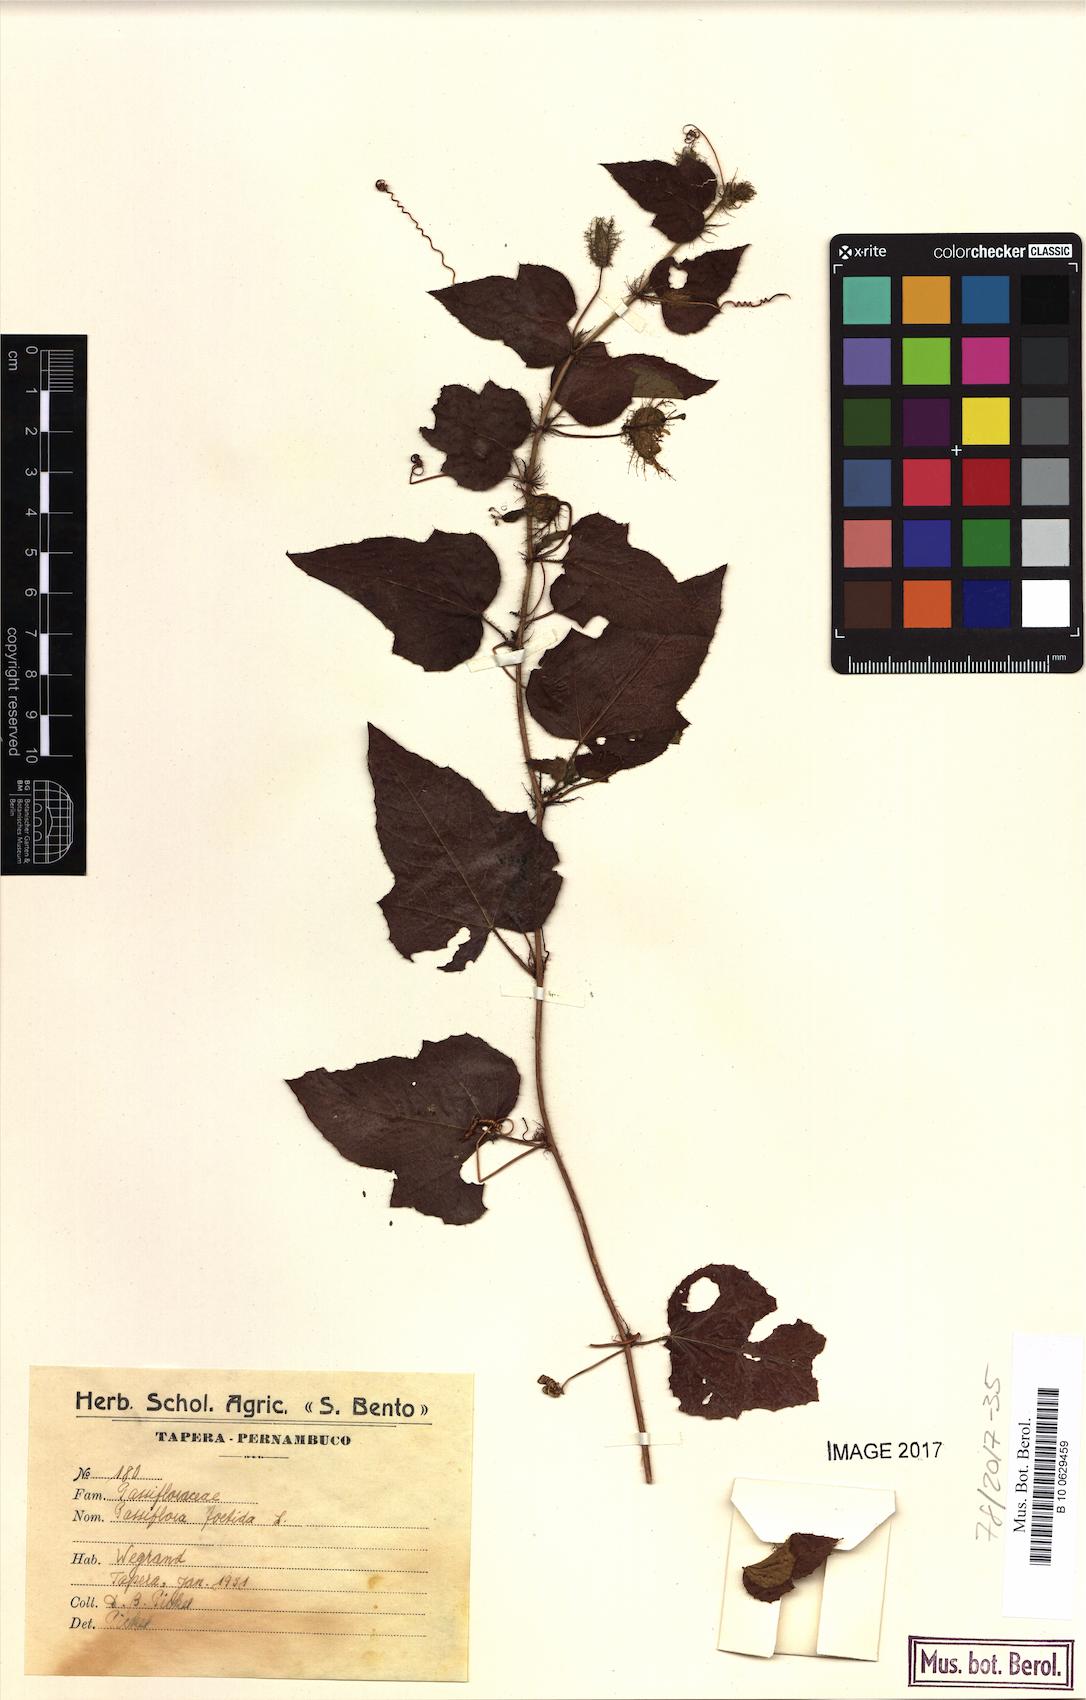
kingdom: Plantae
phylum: Tracheophyta
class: Magnoliopsida
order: Malpighiales
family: Passifloraceae
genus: Passiflora
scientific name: Passiflora foetida
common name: Fetid passionflower
